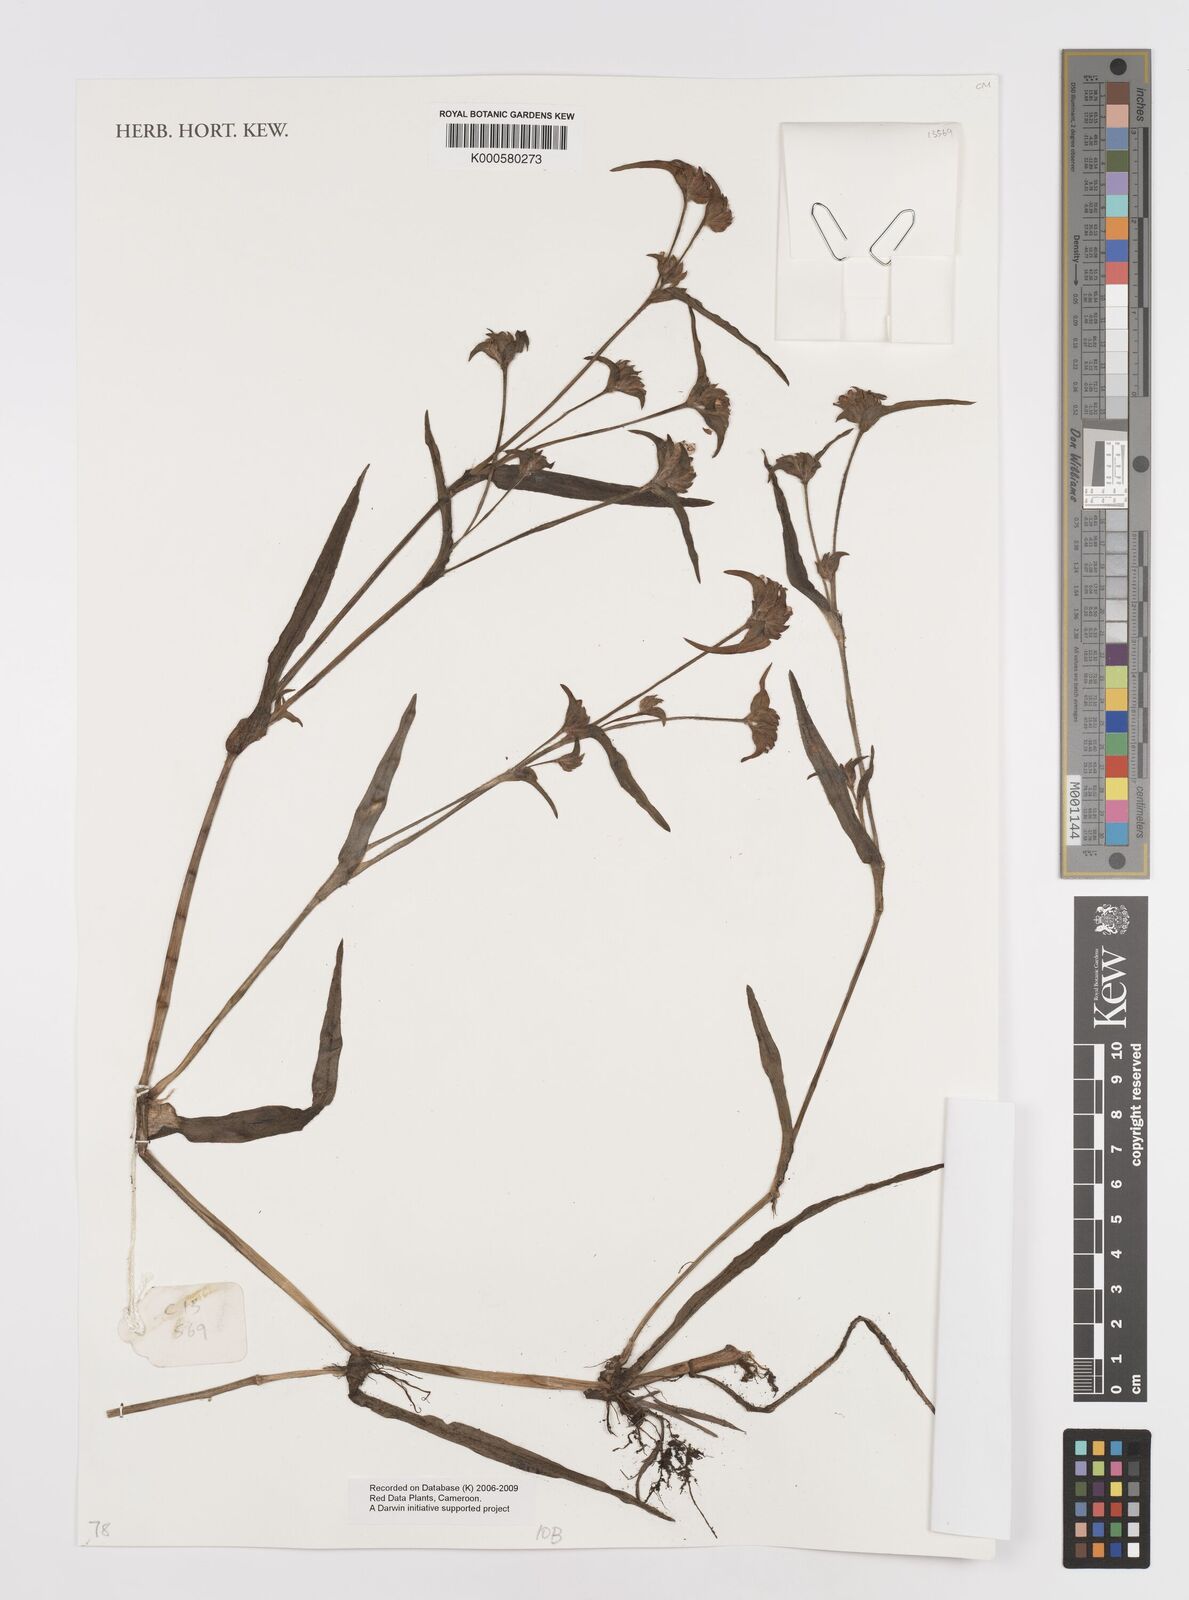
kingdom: Plantae
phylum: Tracheophyta
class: Liliopsida
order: Commelinales
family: Commelinaceae
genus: Cyanotis
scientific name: Cyanotis vaga
